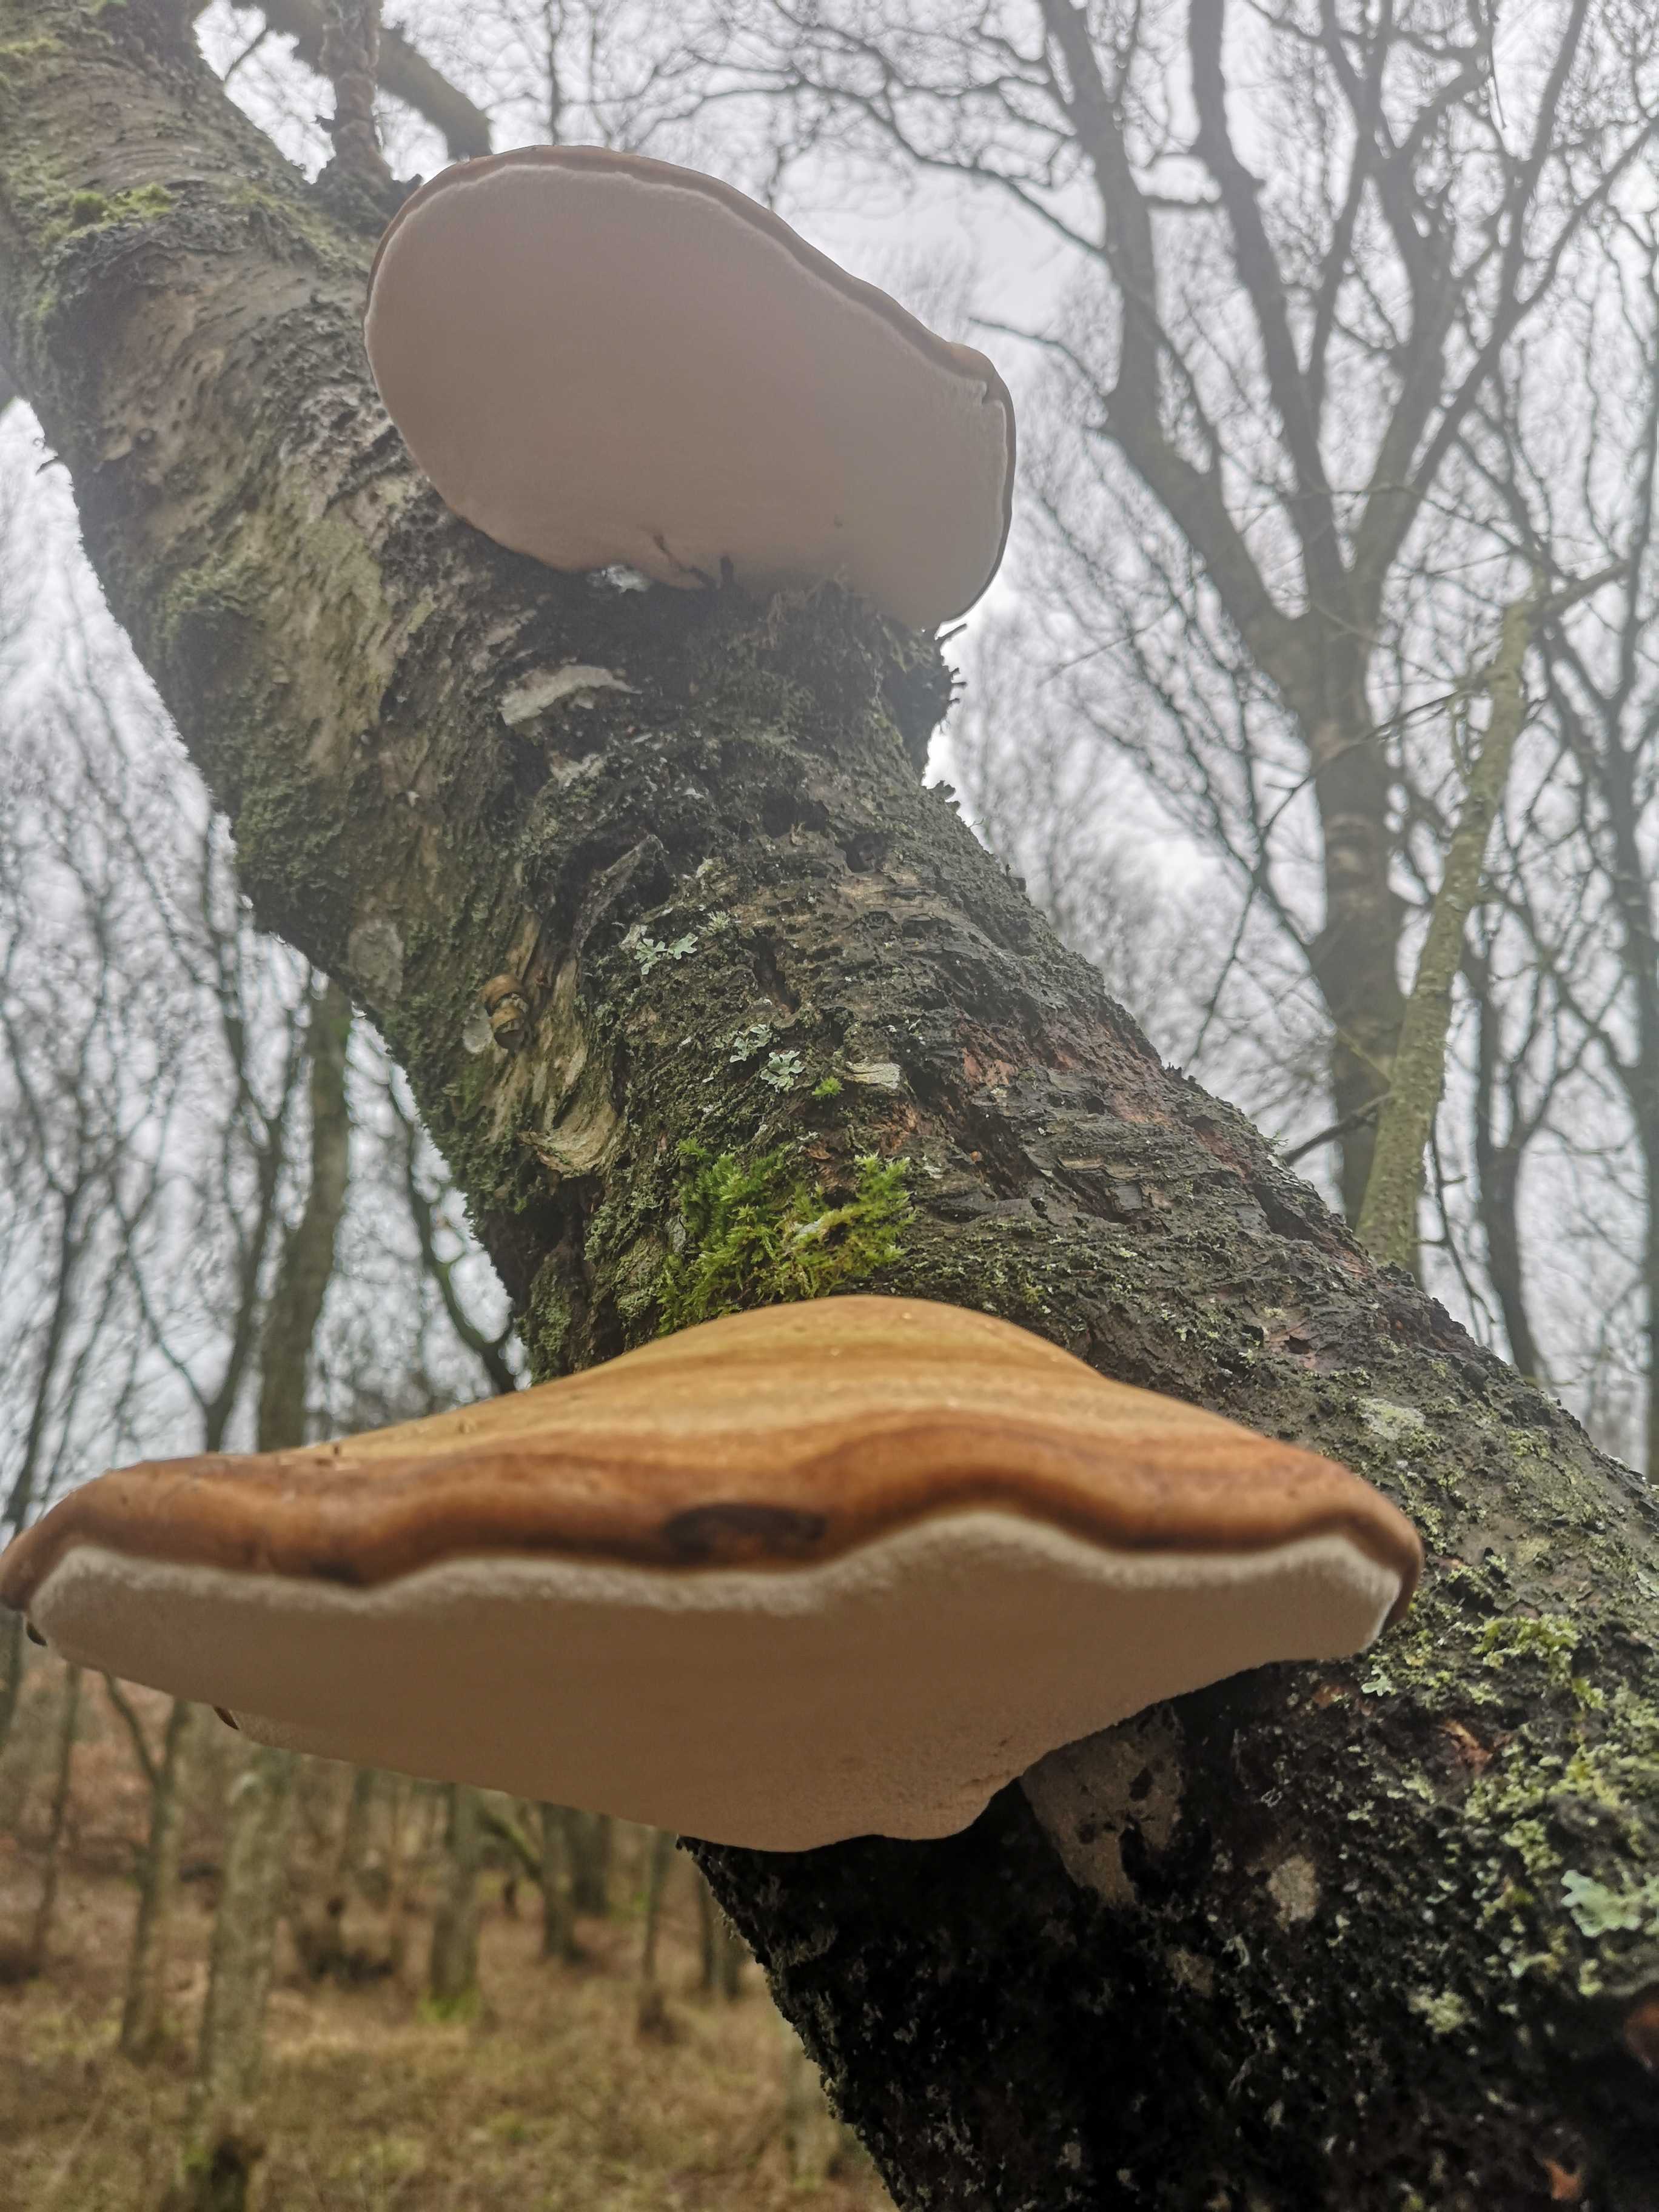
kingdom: Fungi
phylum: Basidiomycota
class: Agaricomycetes
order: Polyporales
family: Fomitopsidaceae
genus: Fomitopsis
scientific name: Fomitopsis betulina
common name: birkeporesvamp
